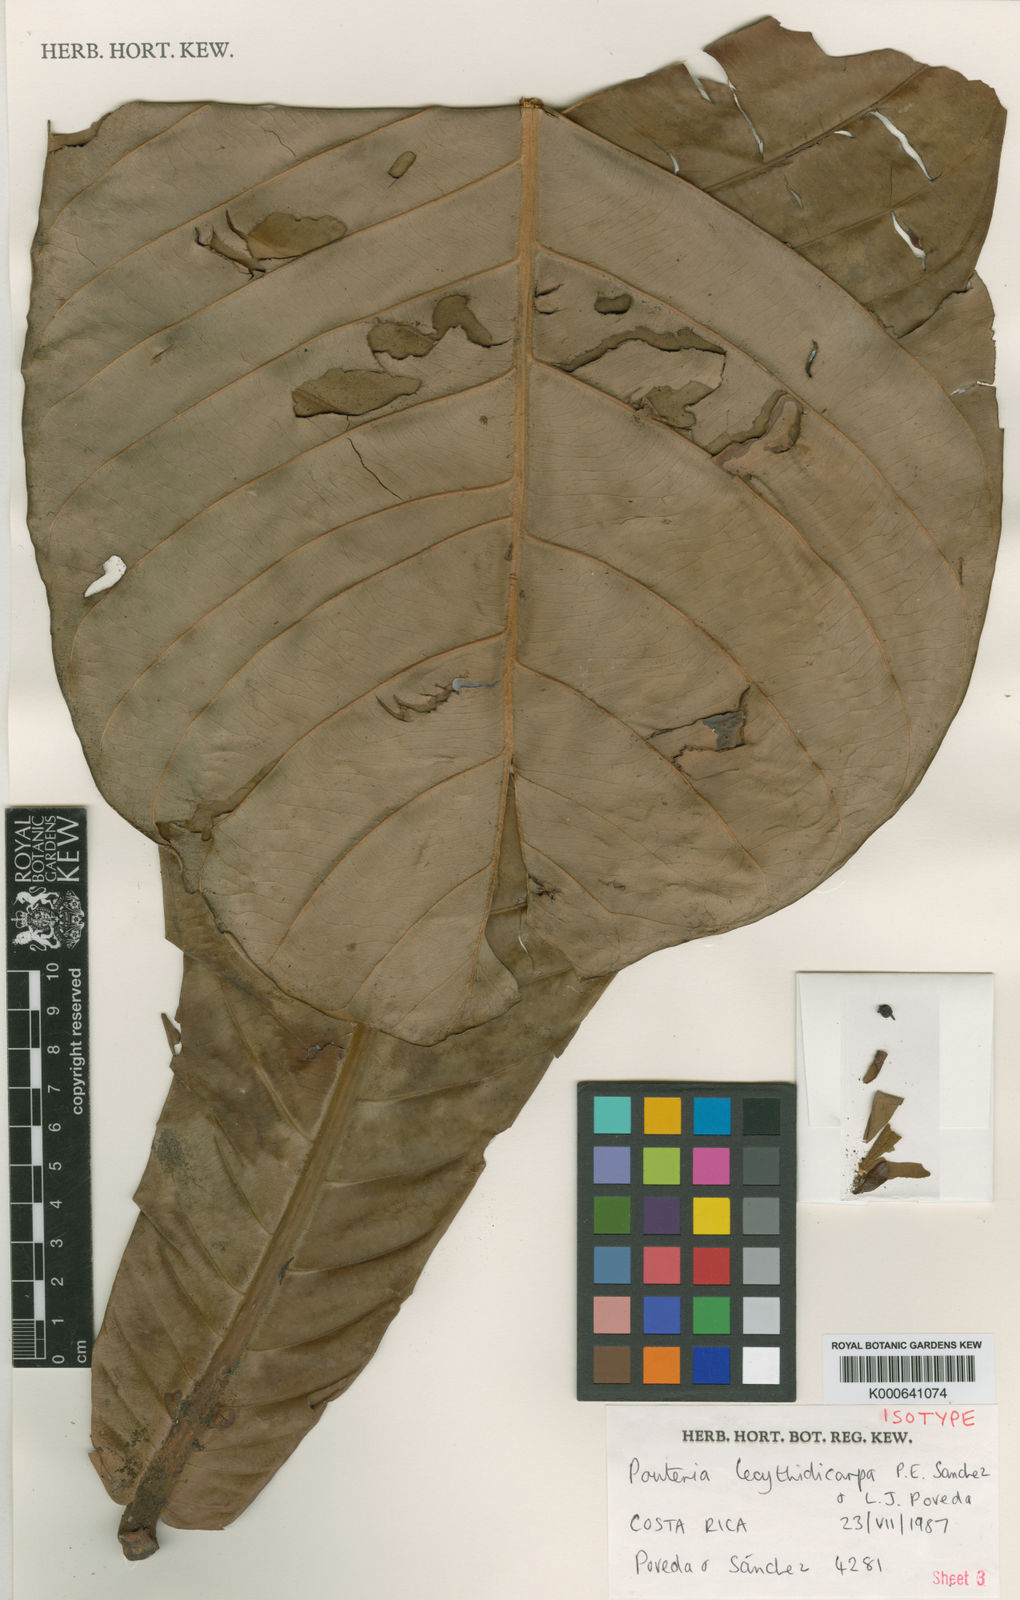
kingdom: Plantae
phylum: Tracheophyta
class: Magnoliopsida
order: Ericales
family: Sapotaceae
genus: Pouteria
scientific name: Pouteria
